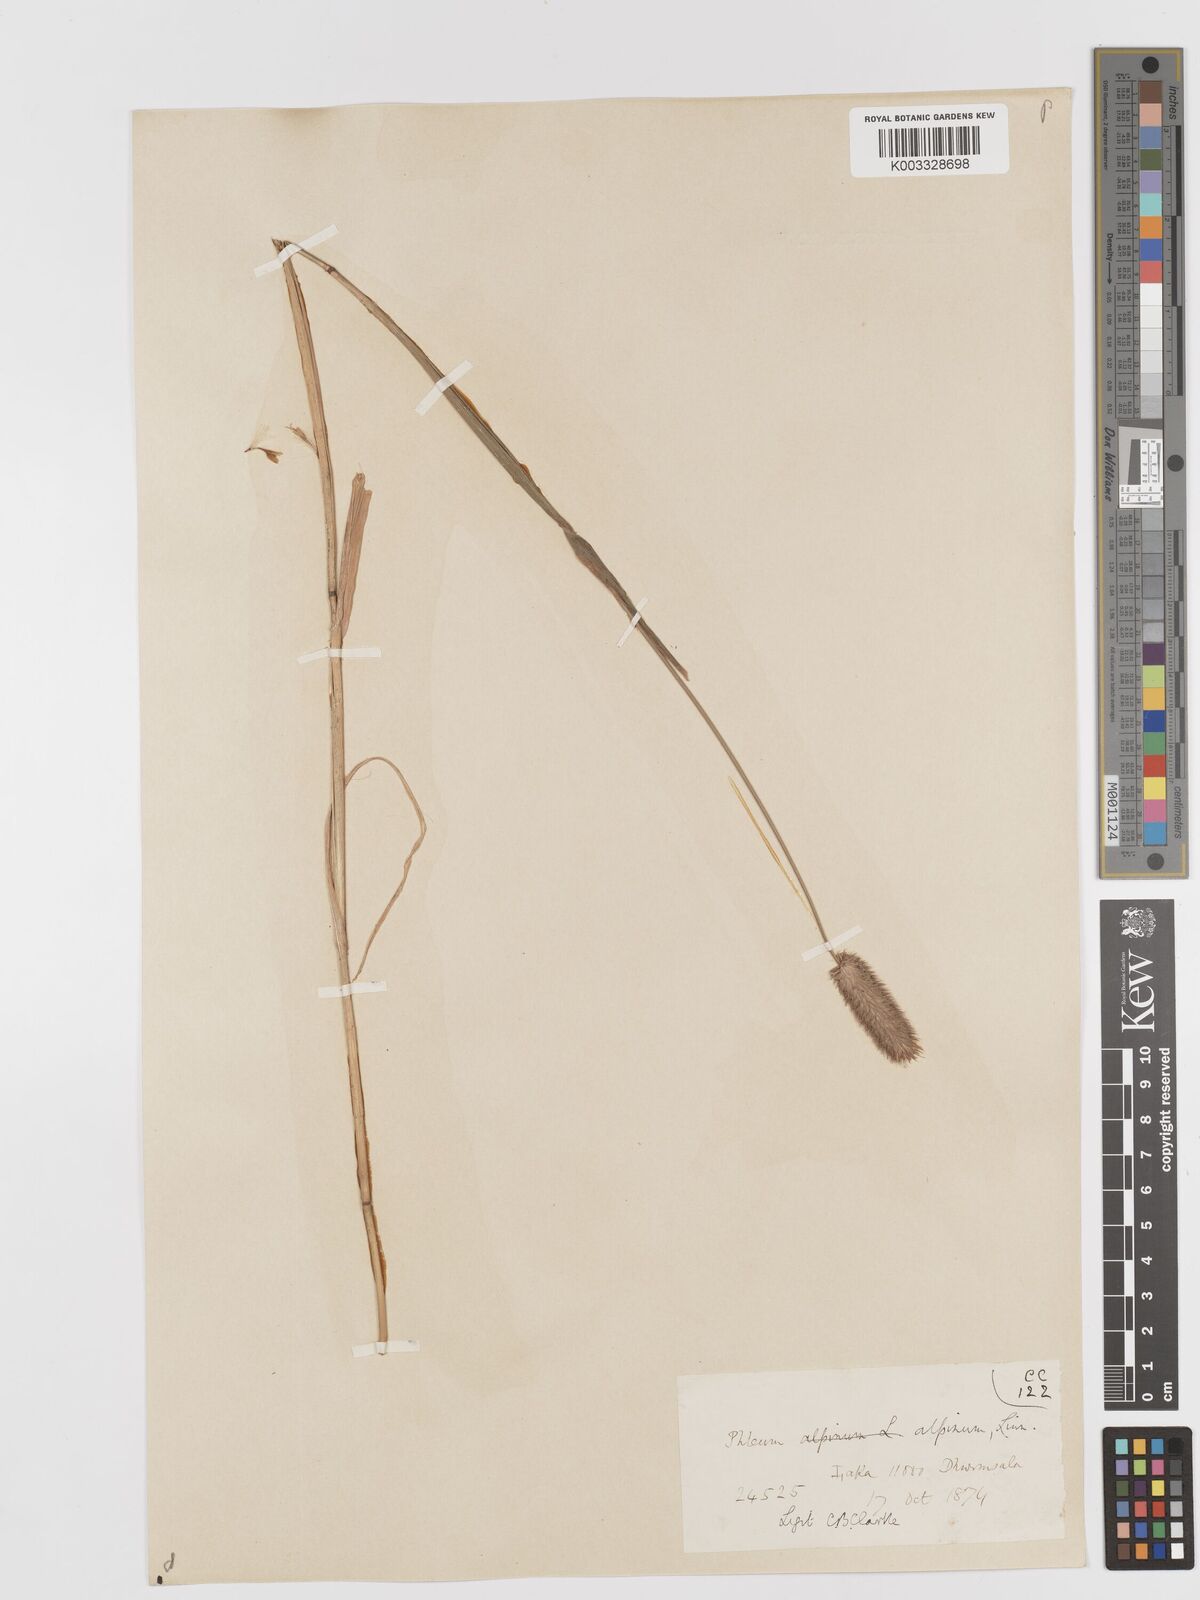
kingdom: Plantae
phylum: Tracheophyta
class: Liliopsida
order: Poales
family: Poaceae
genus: Phleum
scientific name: Phleum alpinum
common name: Alpine cat's-tail
